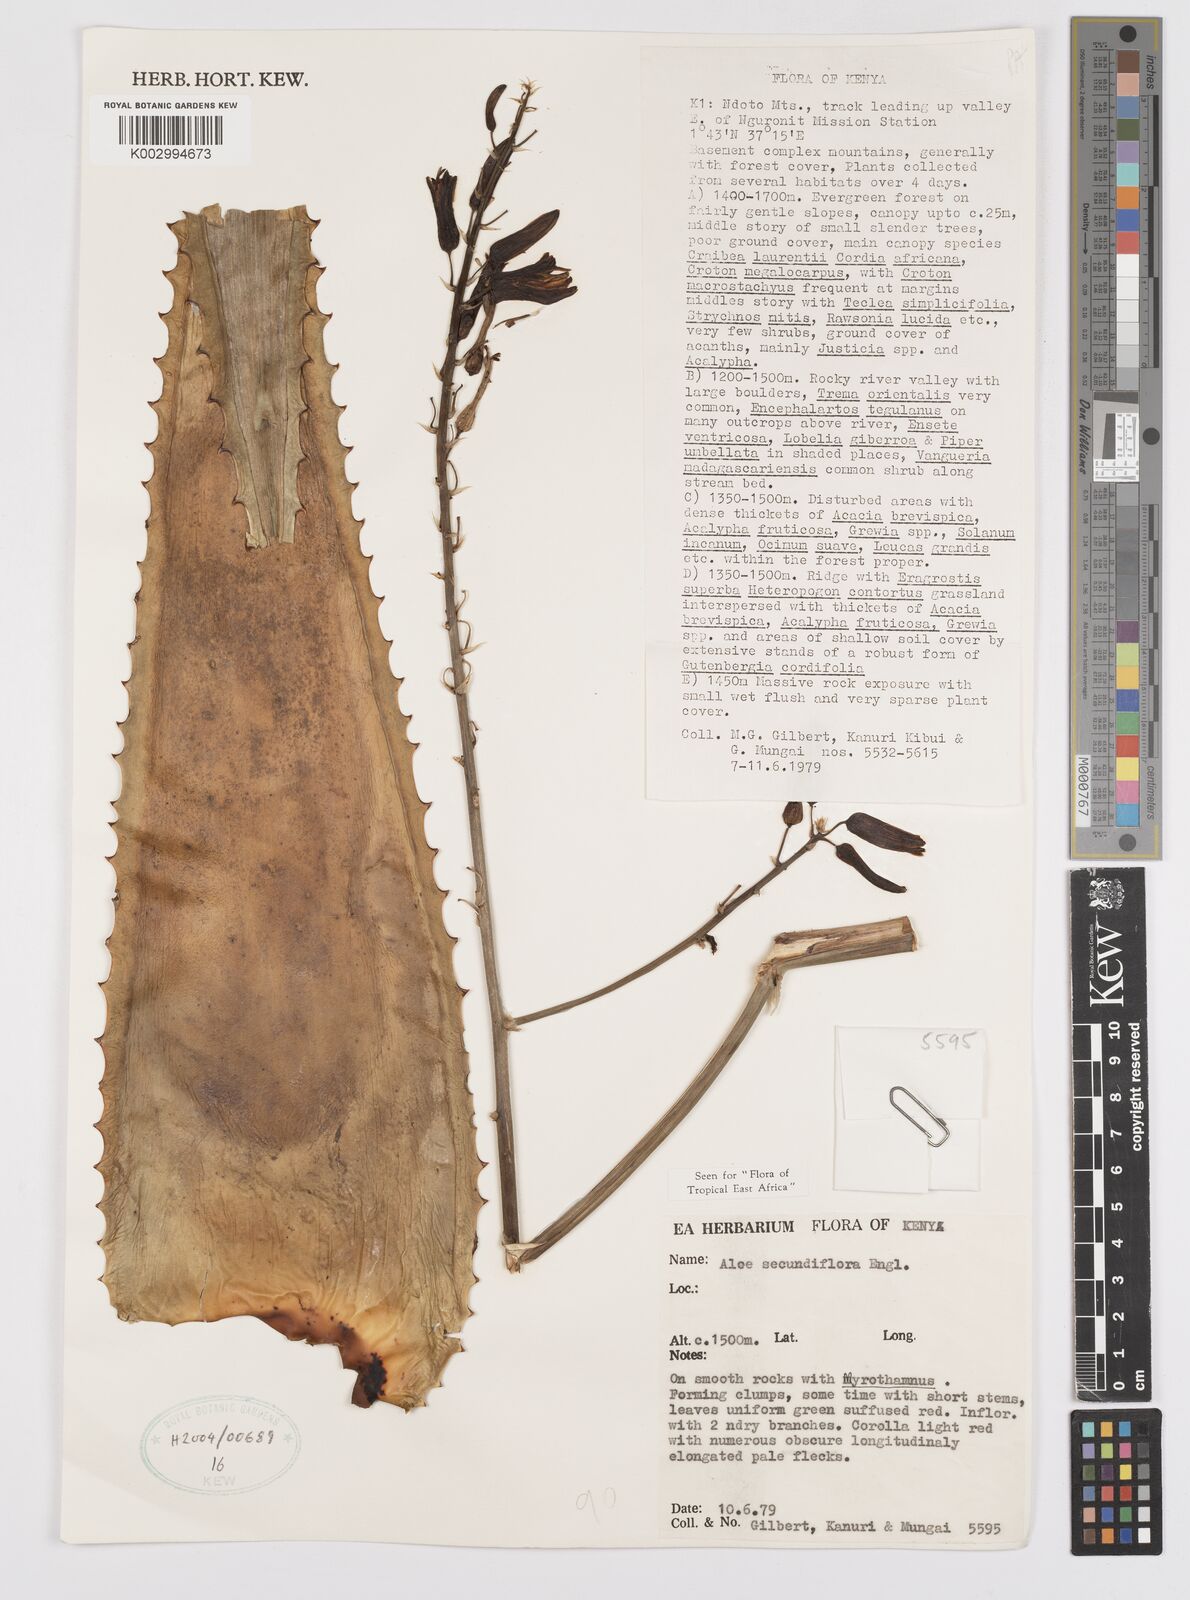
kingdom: Plantae
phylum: Tracheophyta
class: Liliopsida
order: Asparagales
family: Asphodelaceae
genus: Aloe
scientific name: Aloe secundiflora
